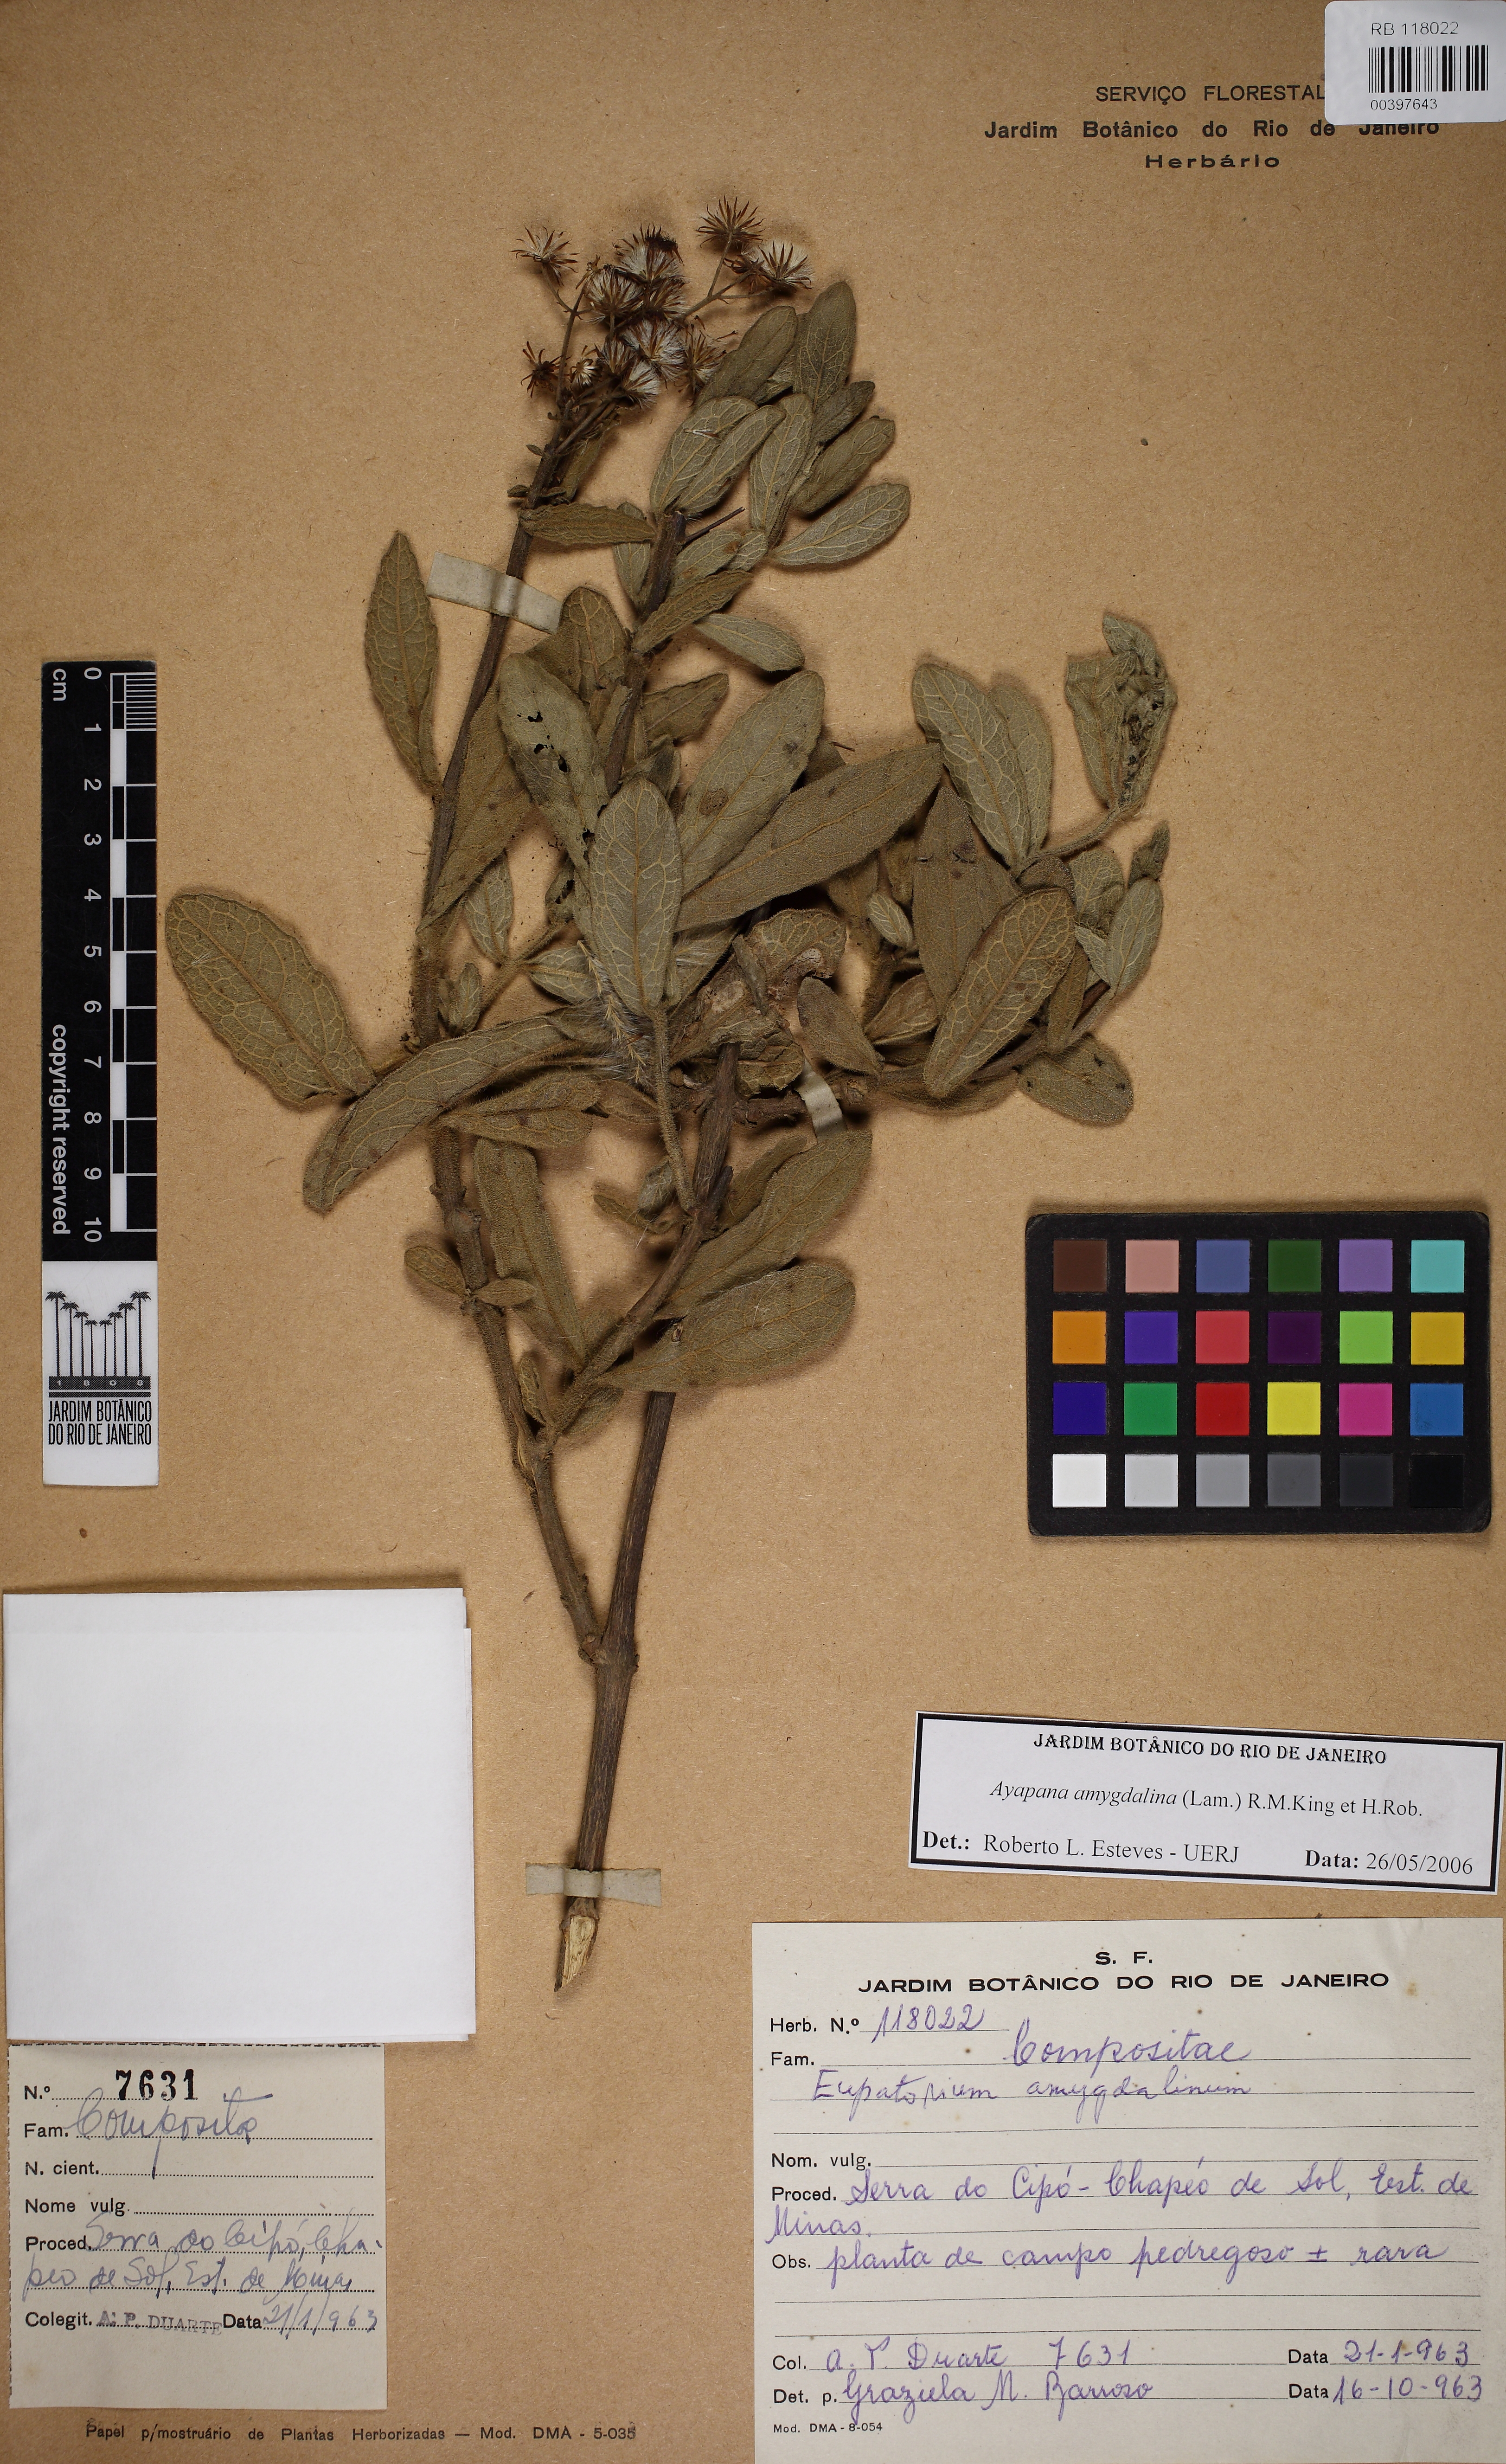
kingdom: Plantae
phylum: Tracheophyta
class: Magnoliopsida
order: Asterales
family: Asteraceae
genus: Ayapana
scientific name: Ayapana amygdalina
